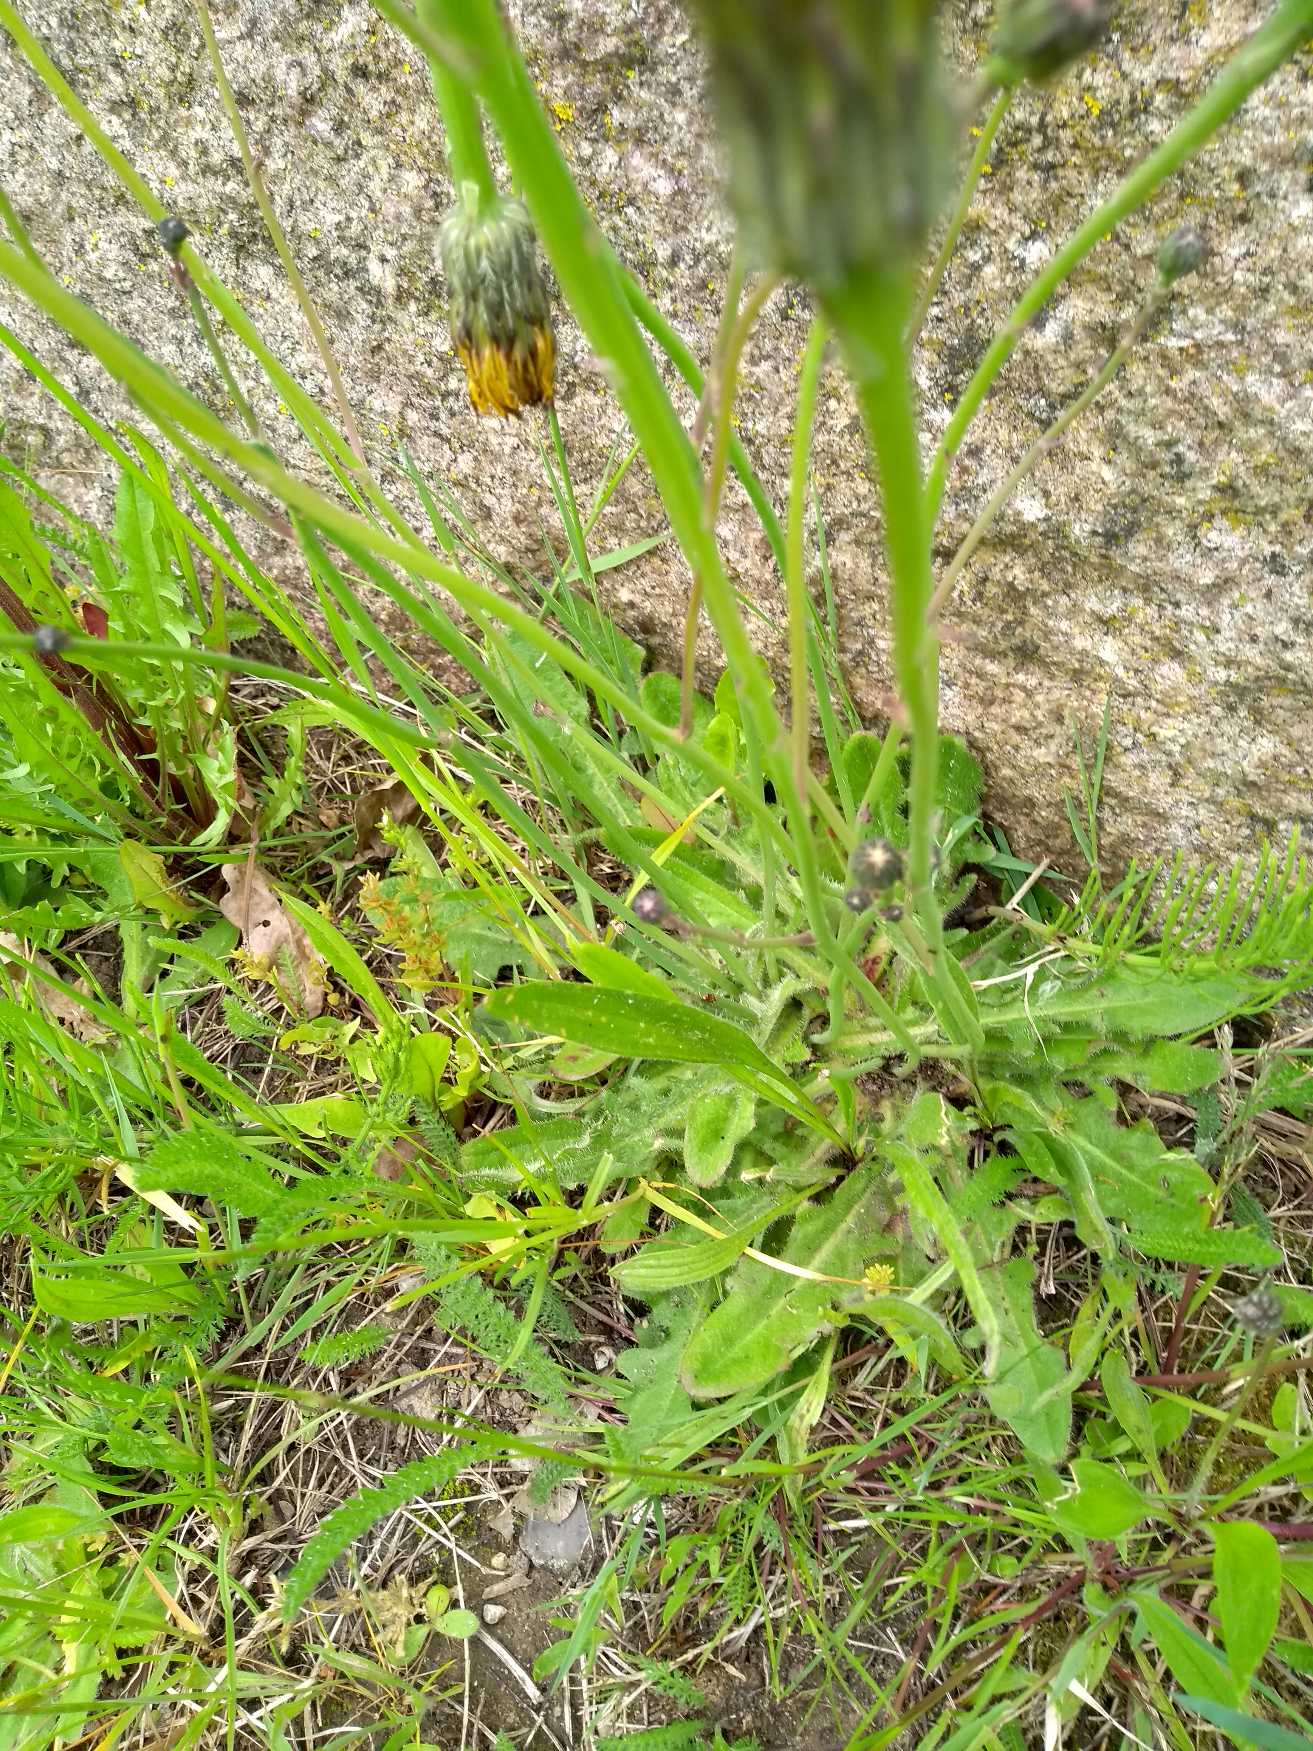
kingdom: Plantae
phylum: Tracheophyta
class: Magnoliopsida
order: Asterales
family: Asteraceae
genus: Hypochaeris
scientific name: Hypochaeris radicata
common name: Almindelig kongepen
